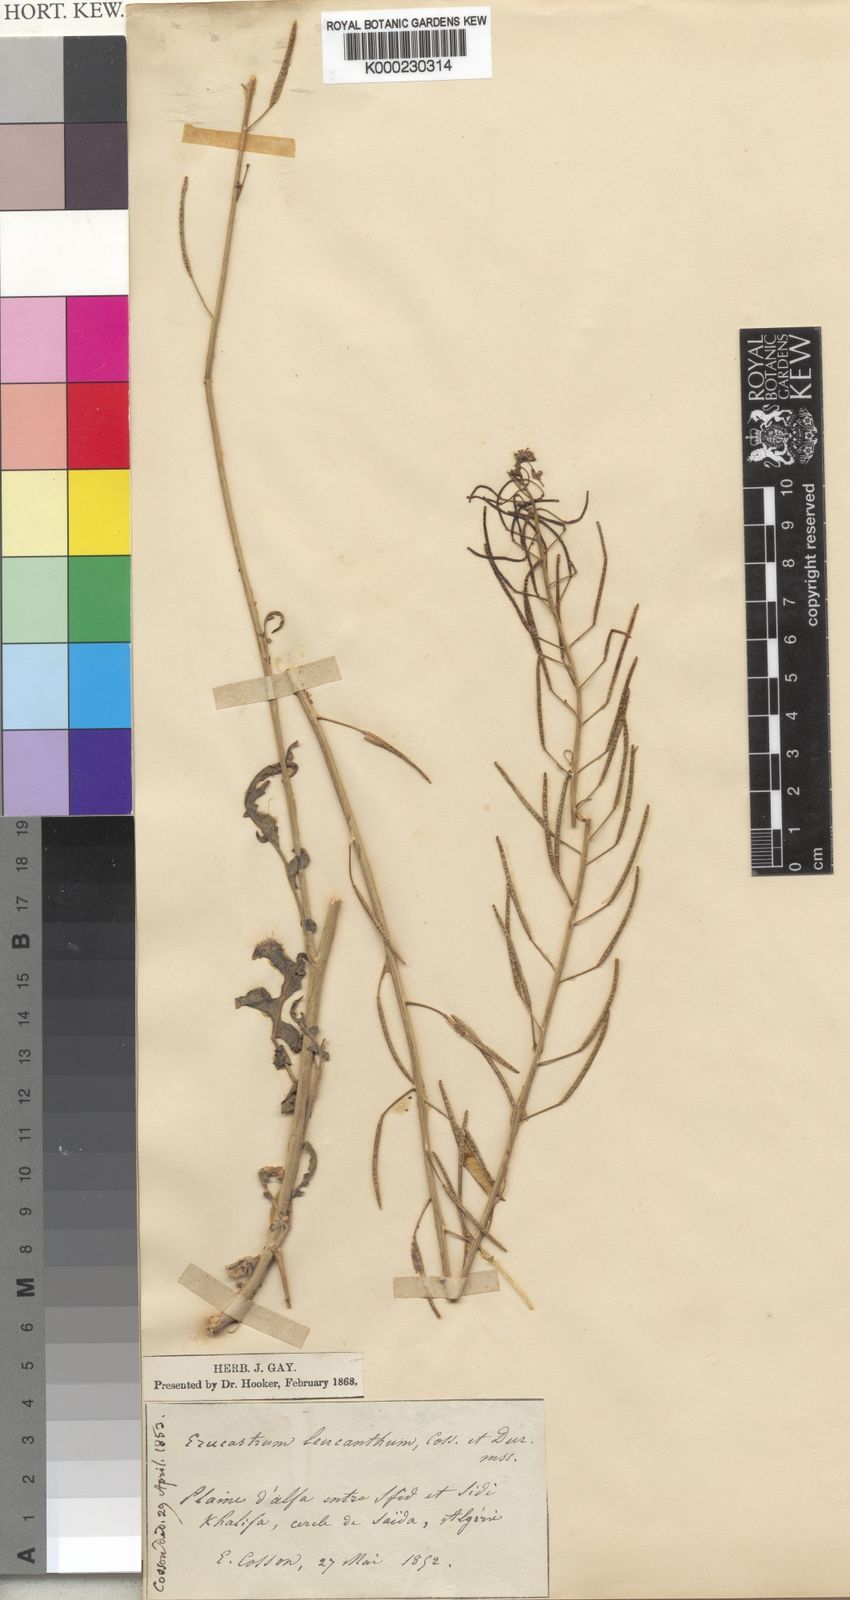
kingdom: Plantae
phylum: Tracheophyta
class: Magnoliopsida
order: Brassicales
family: Brassicaceae
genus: Erucastrum
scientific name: Erucastrum leucanthum
